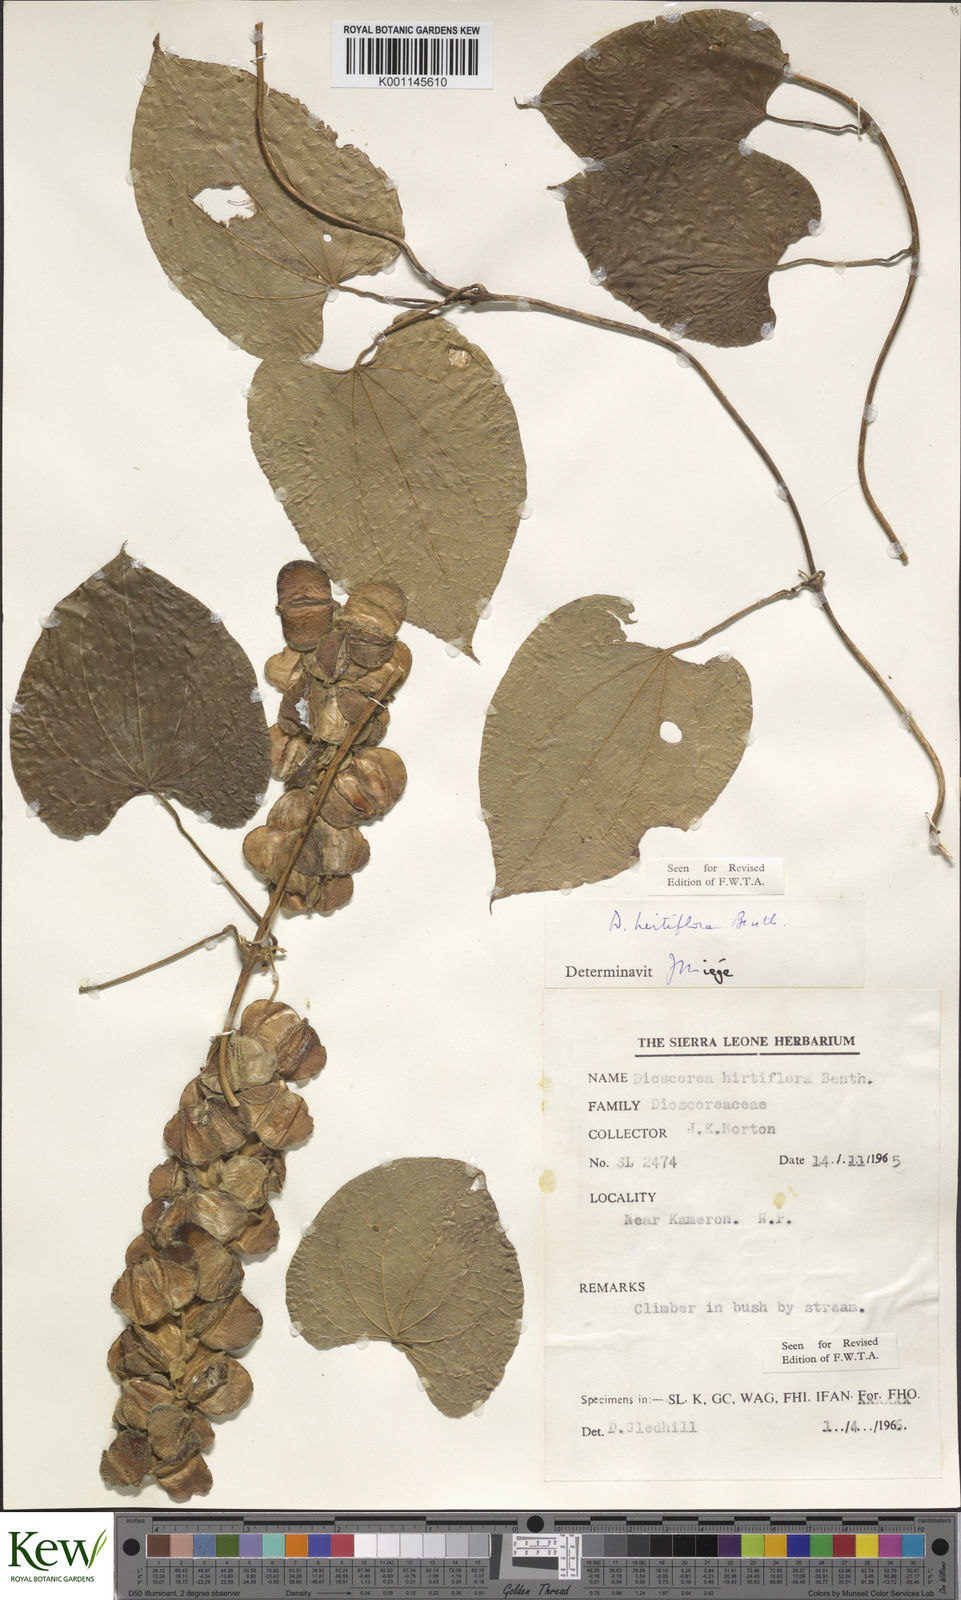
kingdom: Plantae
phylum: Tracheophyta
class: Liliopsida
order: Dioscoreales
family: Dioscoreaceae
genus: Dioscorea
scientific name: Dioscorea hirtiflora
